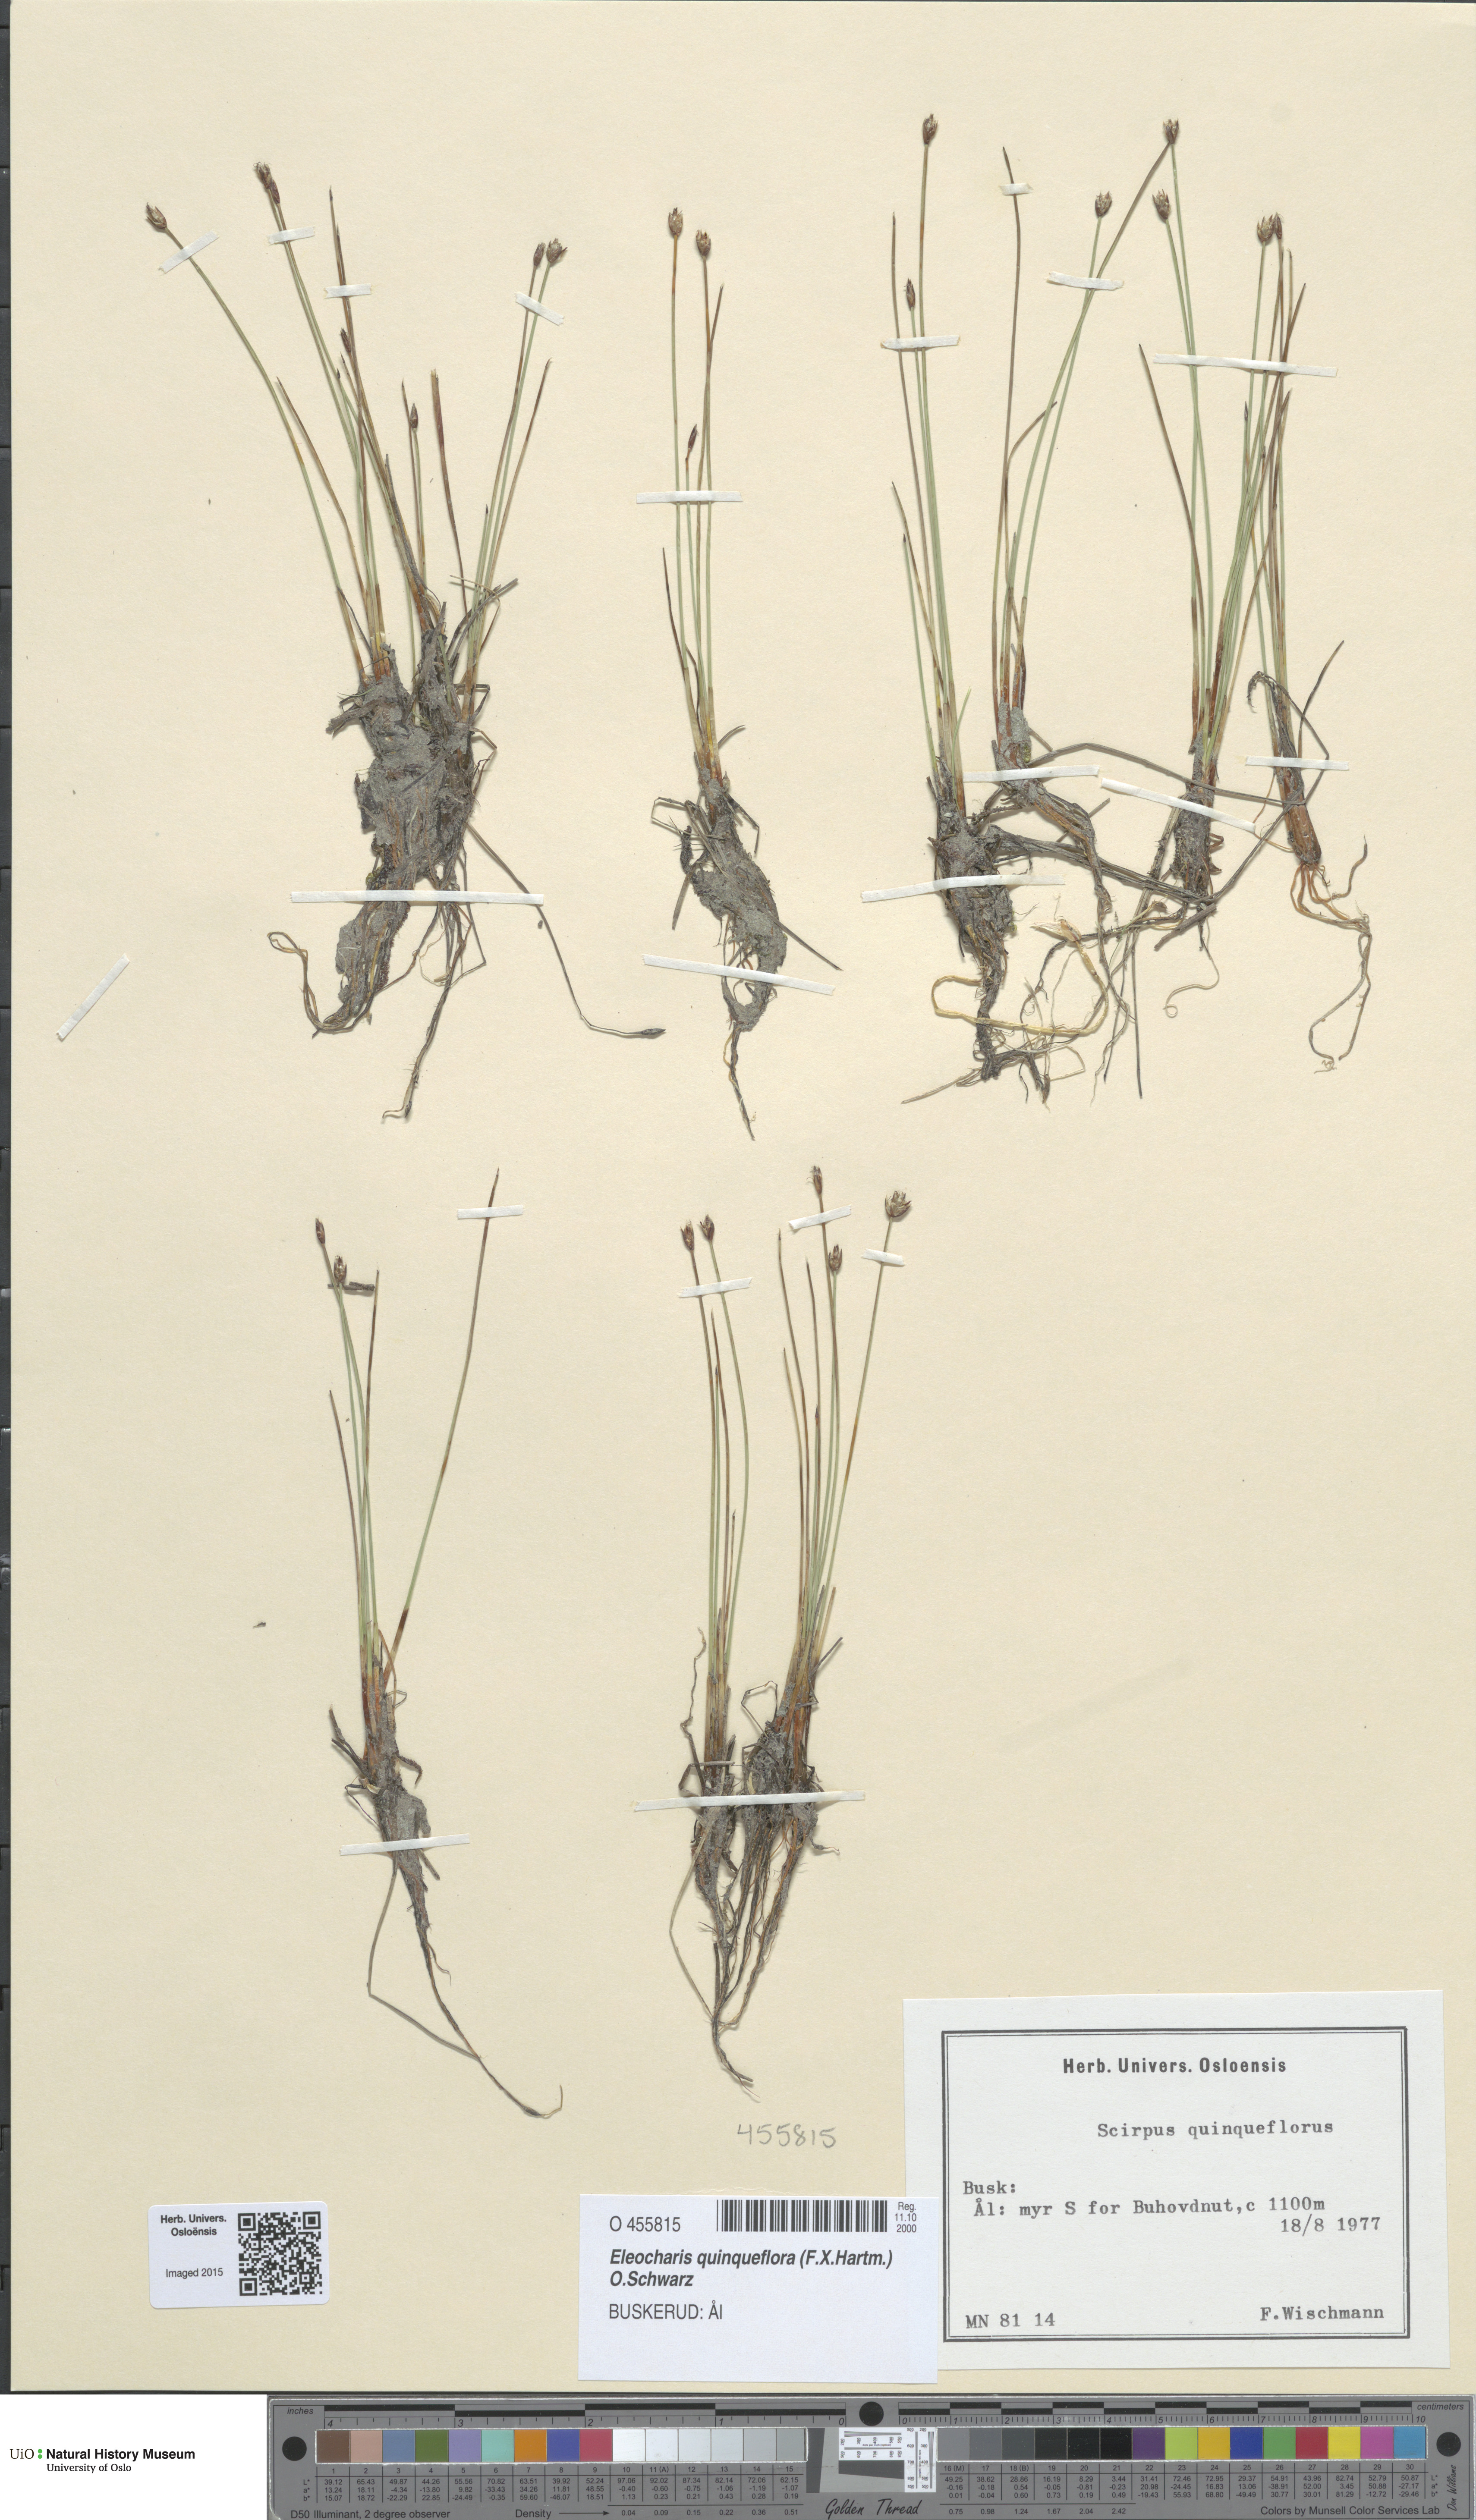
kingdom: Plantae
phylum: Tracheophyta
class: Liliopsida
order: Poales
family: Cyperaceae
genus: Eleocharis
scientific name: Eleocharis quinqueflora
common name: Few-flowered spike-rush
